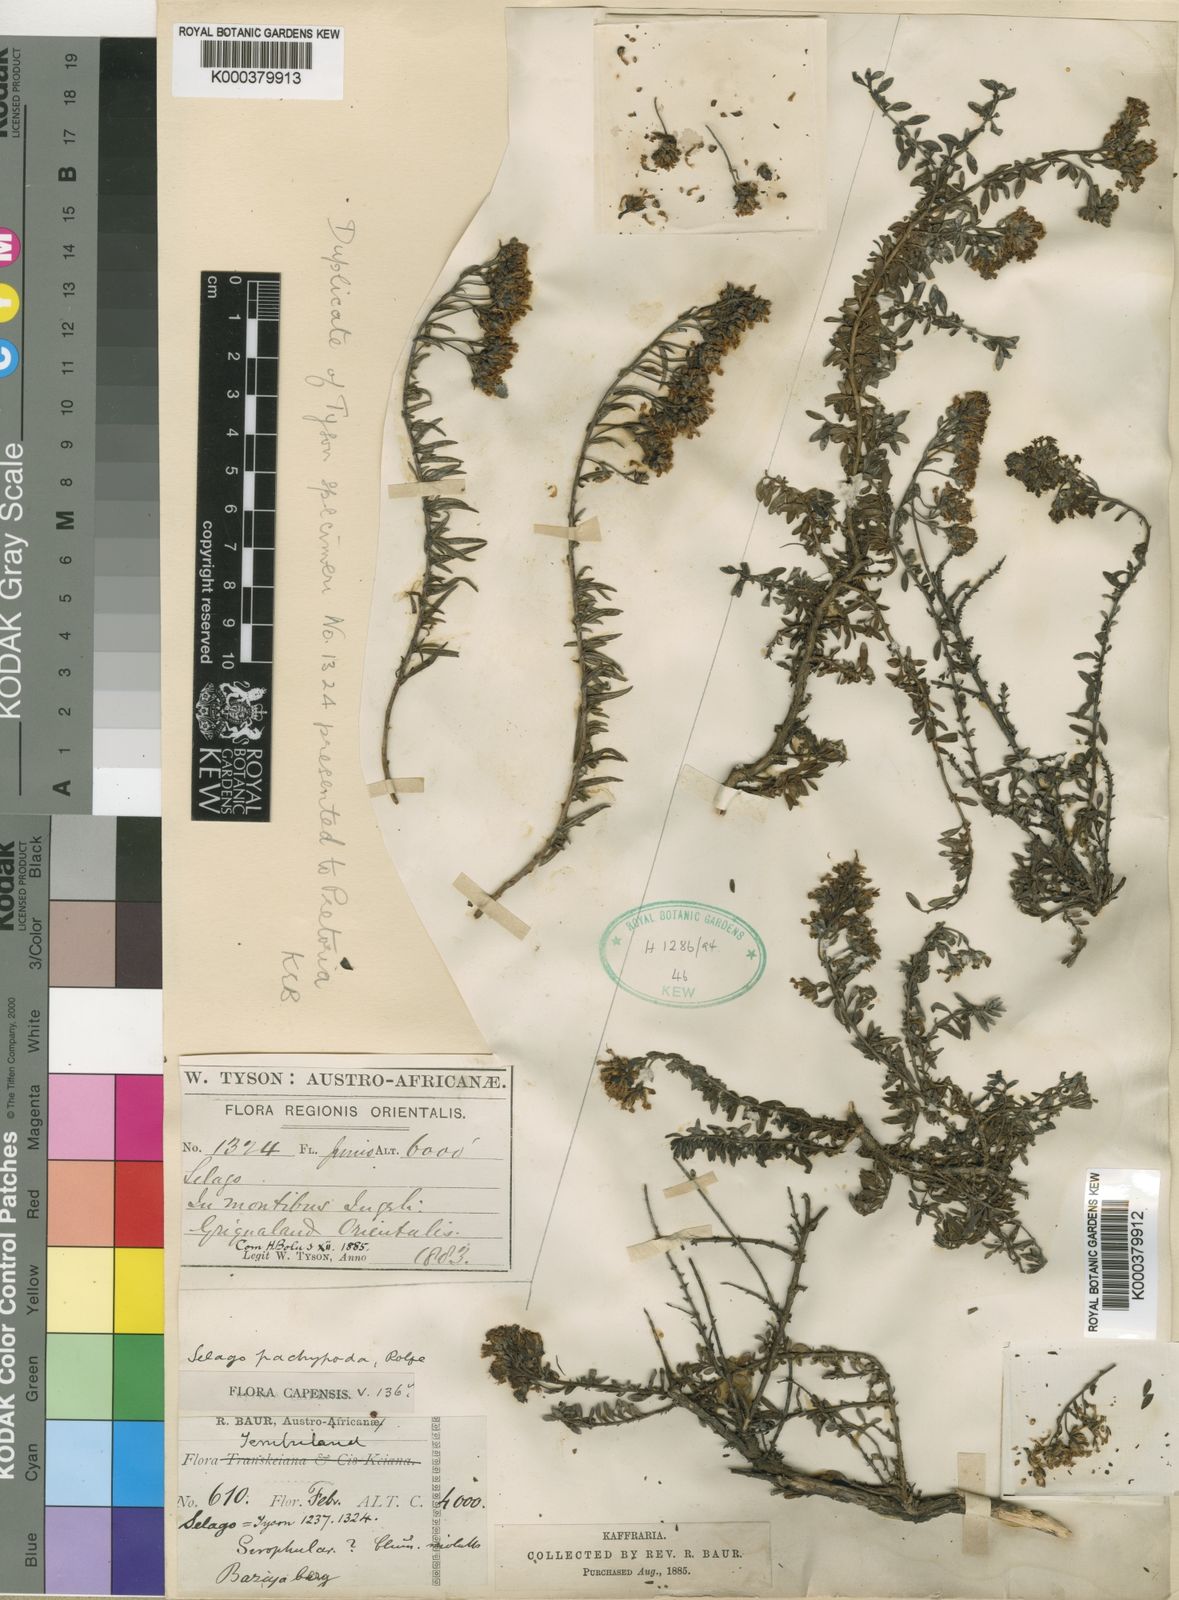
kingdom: Plantae
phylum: Tracheophyta
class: Magnoliopsida
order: Lamiales
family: Scrophulariaceae
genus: Selago
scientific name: Selago pachypoda
